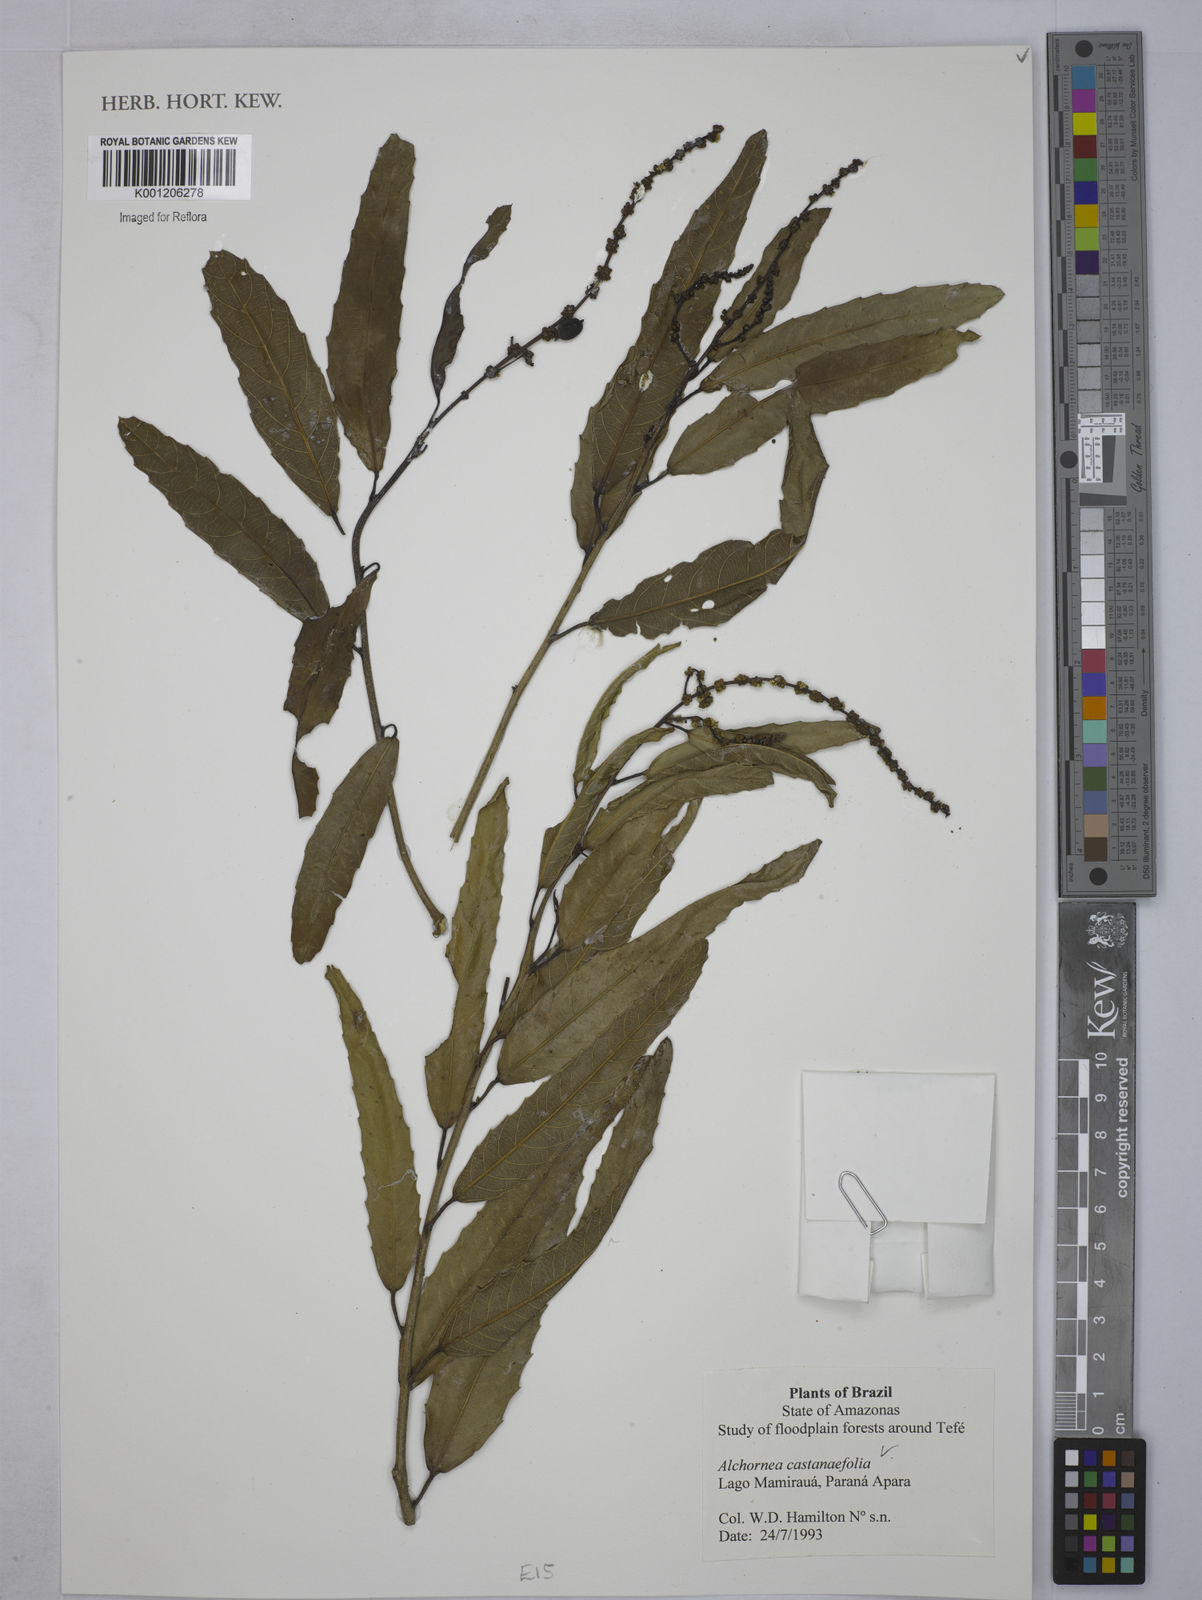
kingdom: Plantae
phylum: Tracheophyta
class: Magnoliopsida
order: Malpighiales
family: Euphorbiaceae
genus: Alchornea
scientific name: Alchornea castaneifolia
